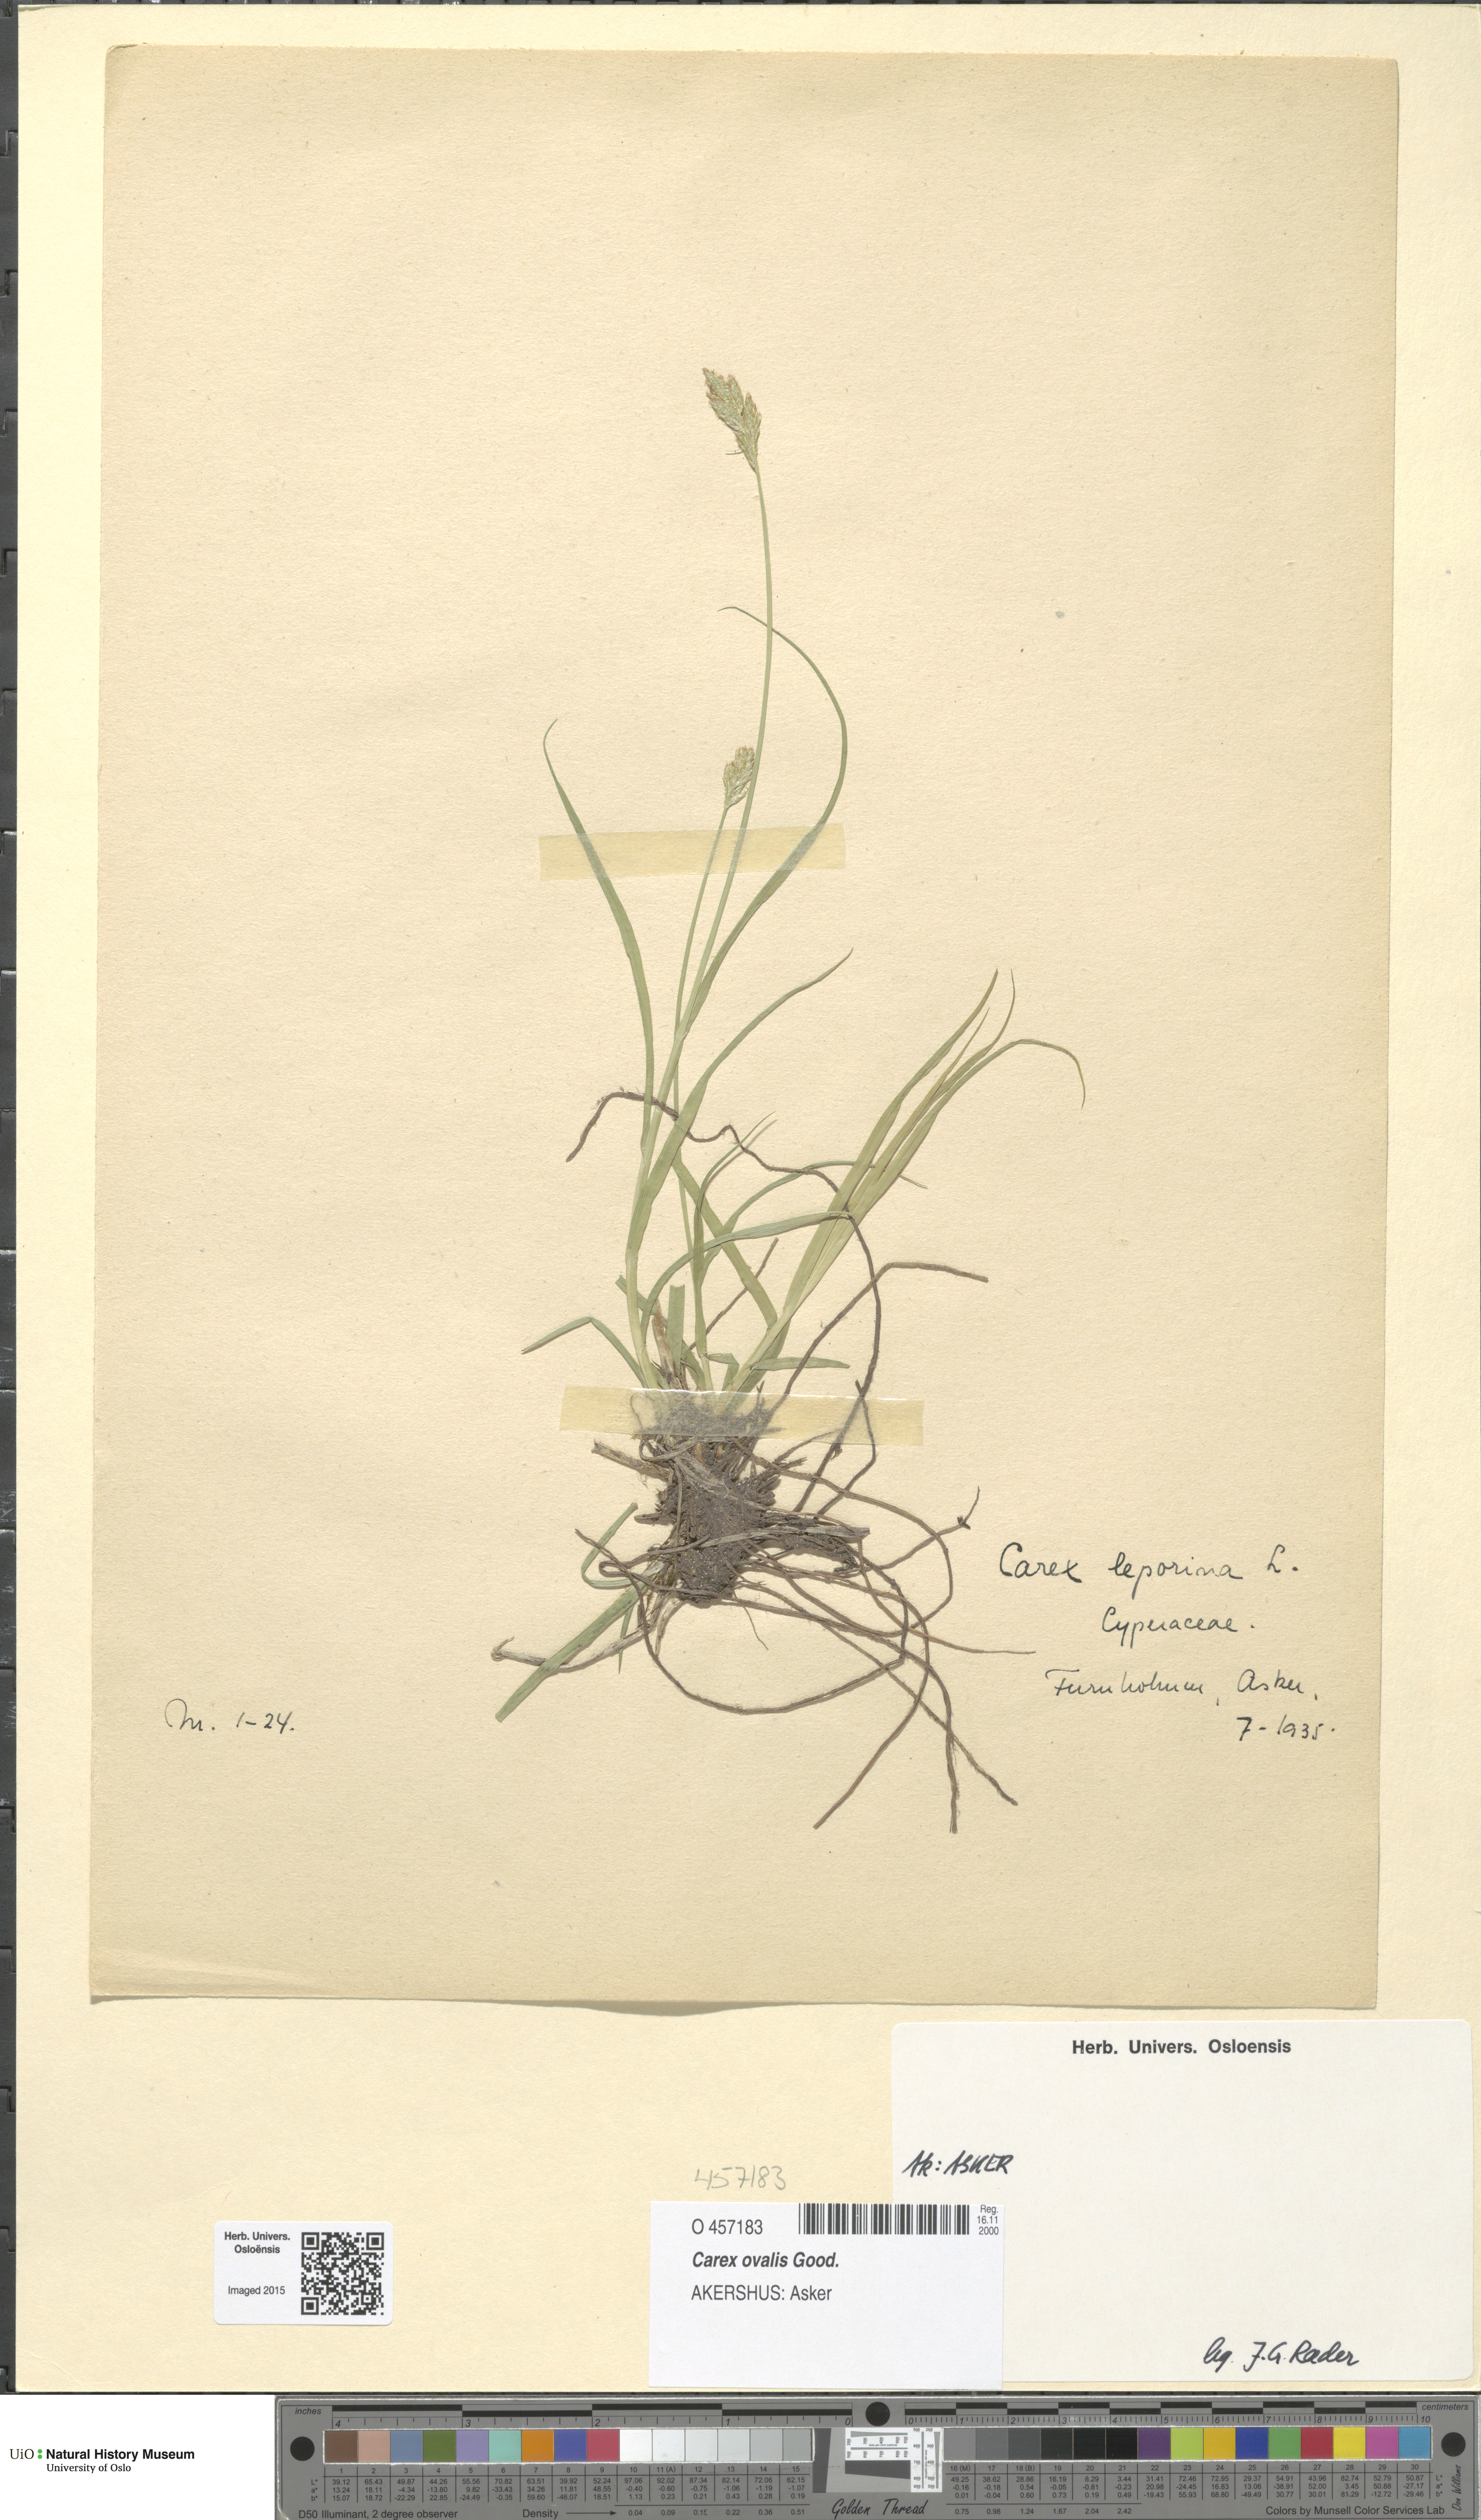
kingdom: Plantae
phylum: Tracheophyta
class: Liliopsida
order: Poales
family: Cyperaceae
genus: Carex
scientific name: Carex leporina
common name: Oval sedge
